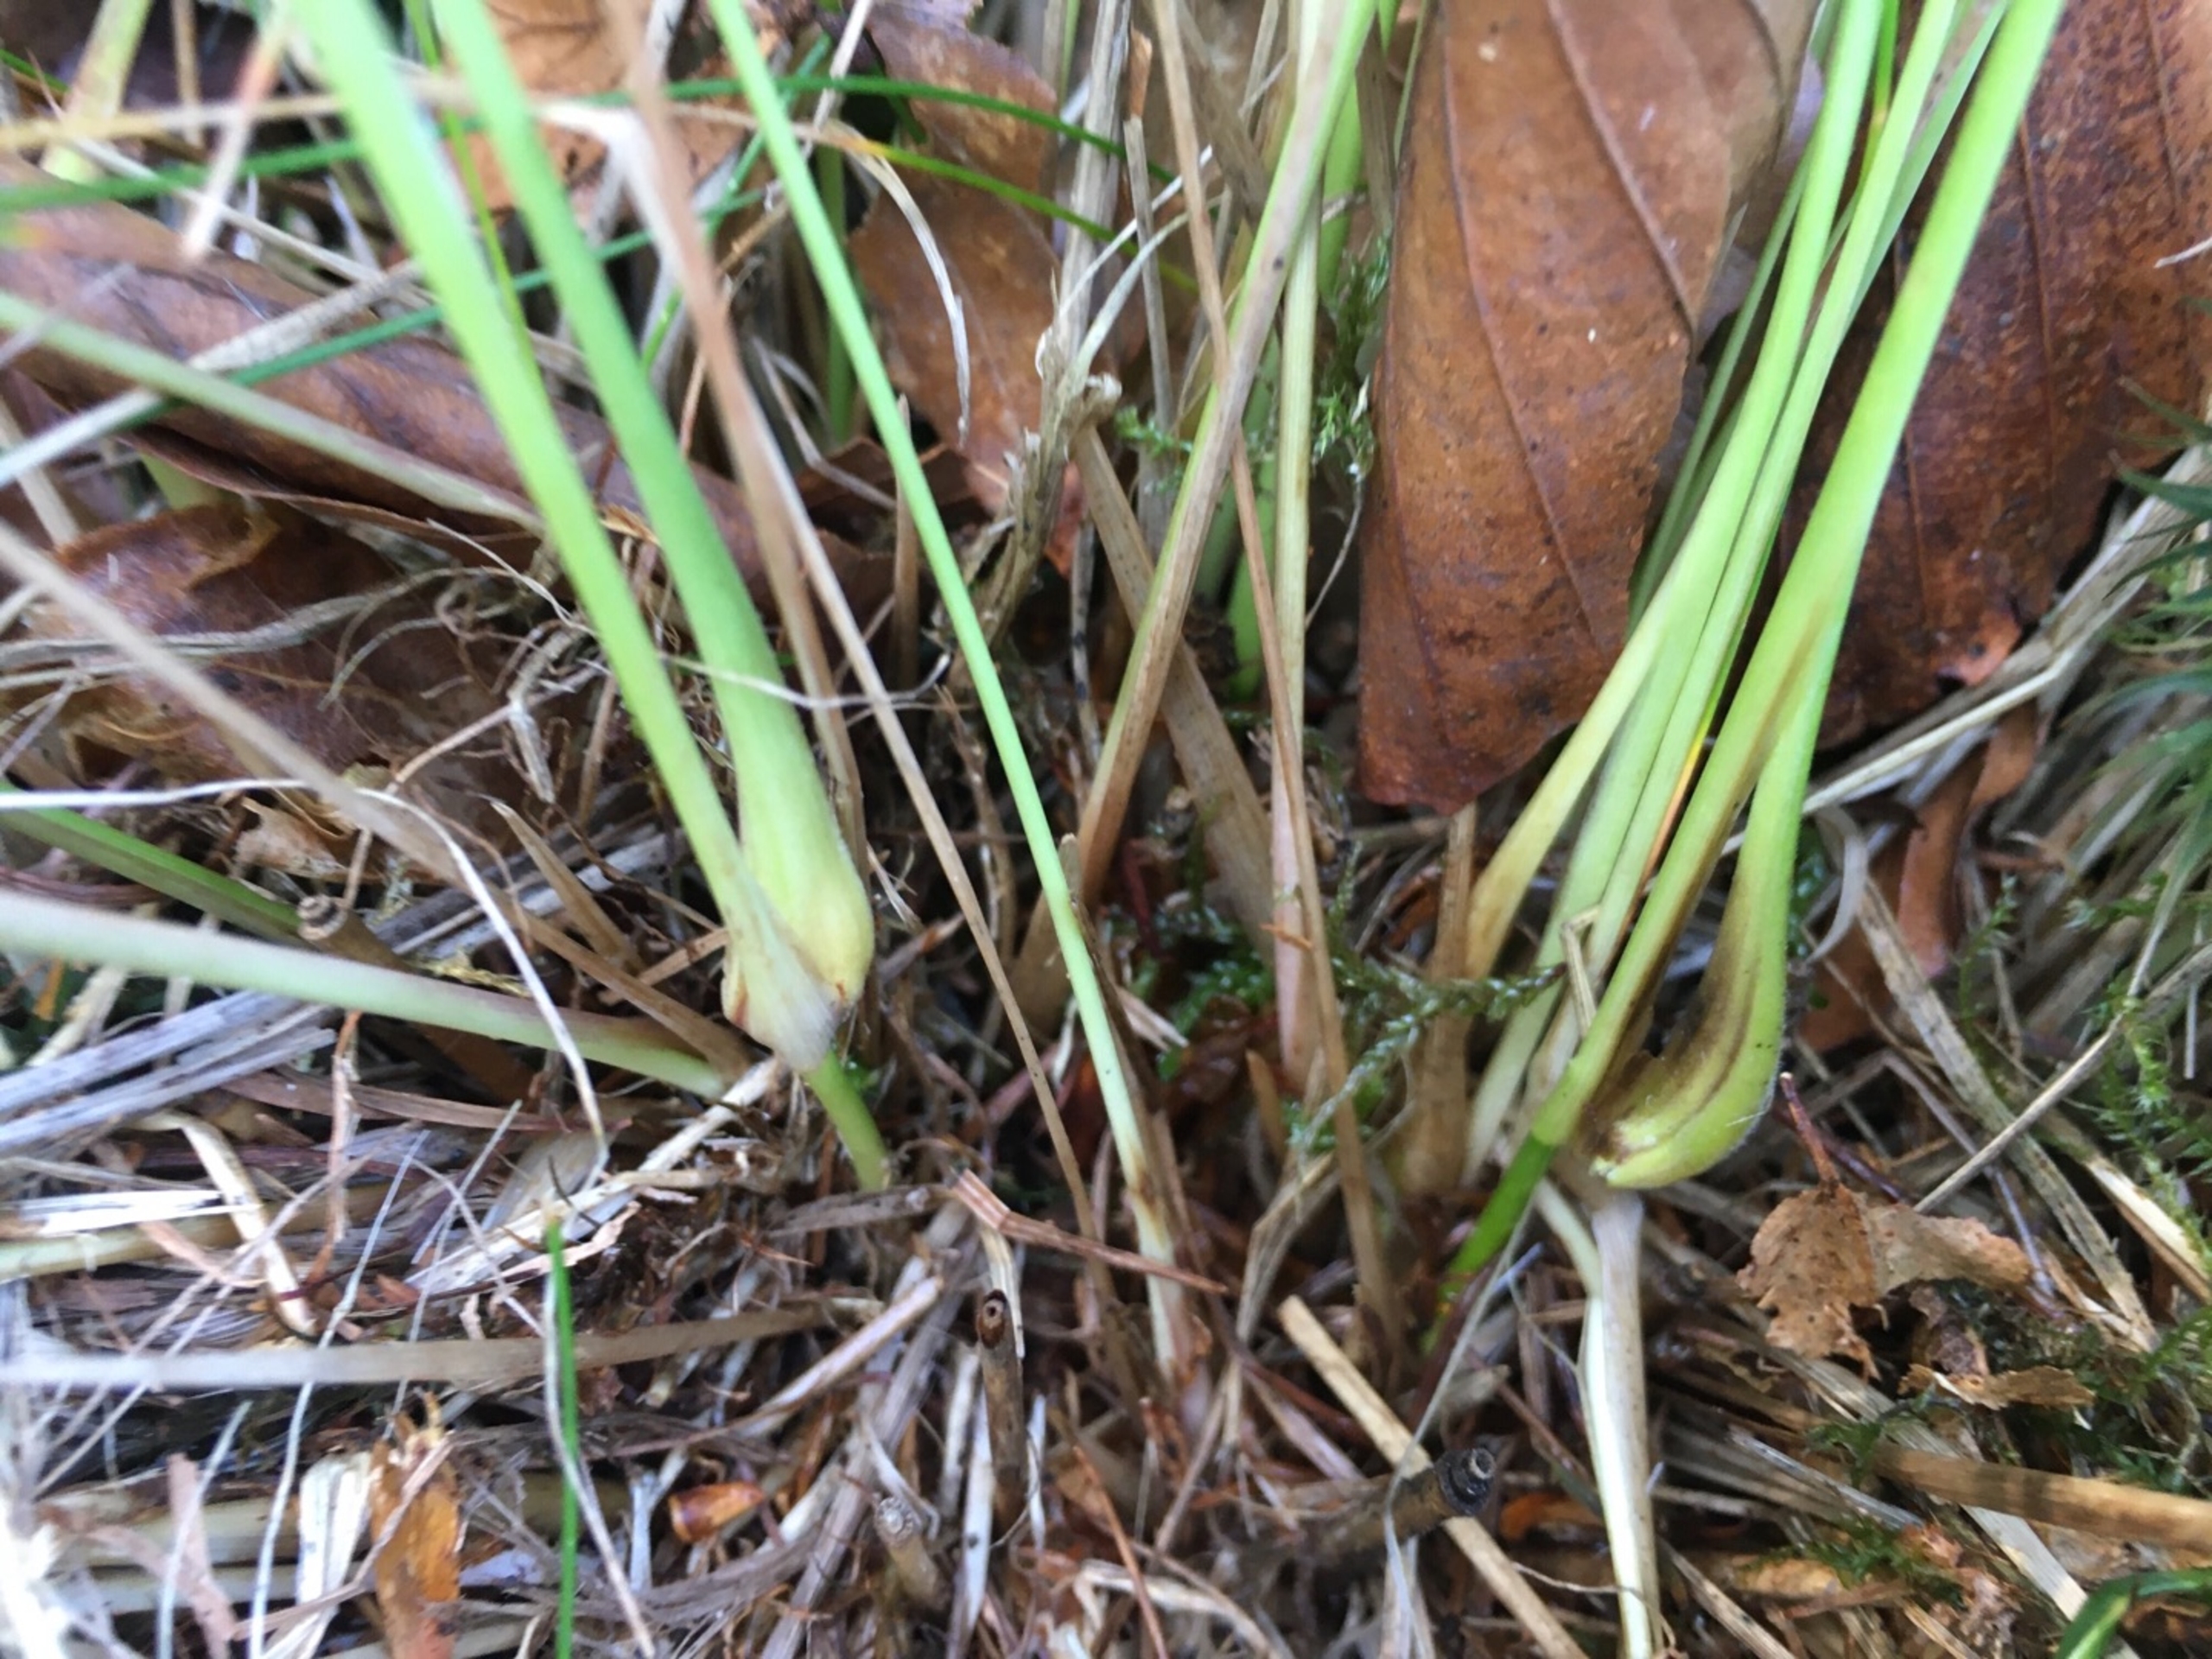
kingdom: Animalia
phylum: Arthropoda
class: Insecta
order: Diptera
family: Cecidomyiidae
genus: Mayetiola
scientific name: Mayetiola ventricolus
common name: Blåtopgalmyg
